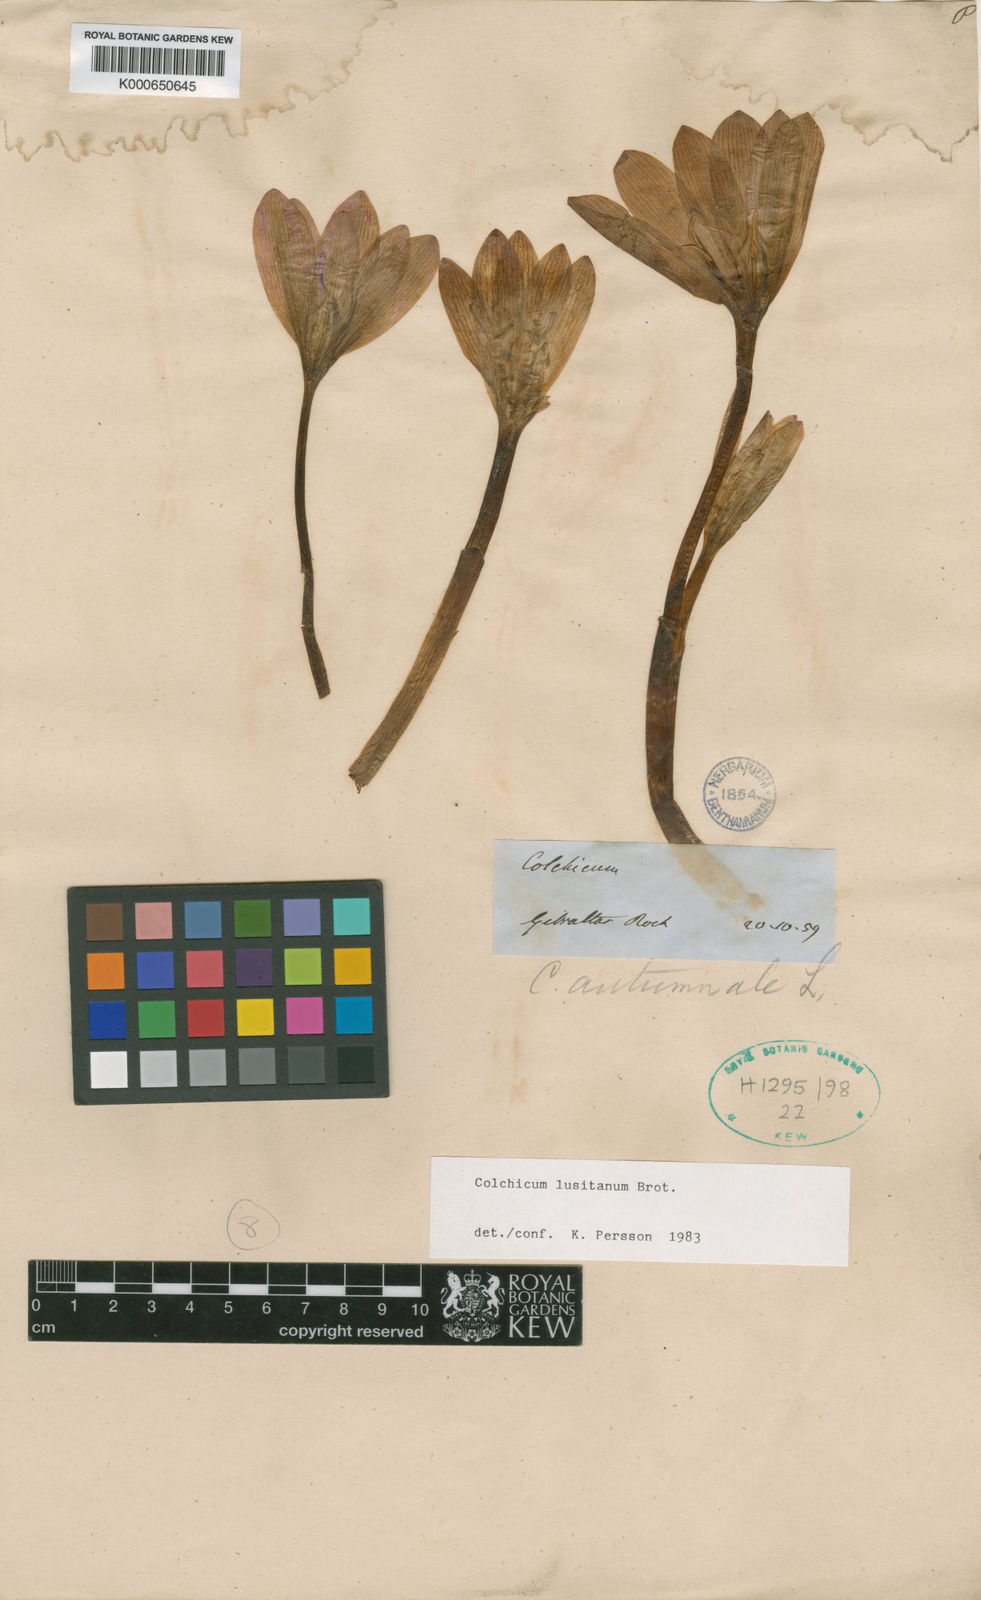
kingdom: Plantae
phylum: Tracheophyta
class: Liliopsida
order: Liliales
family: Colchicaceae
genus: Colchicum
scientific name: Colchicum lusitanum
